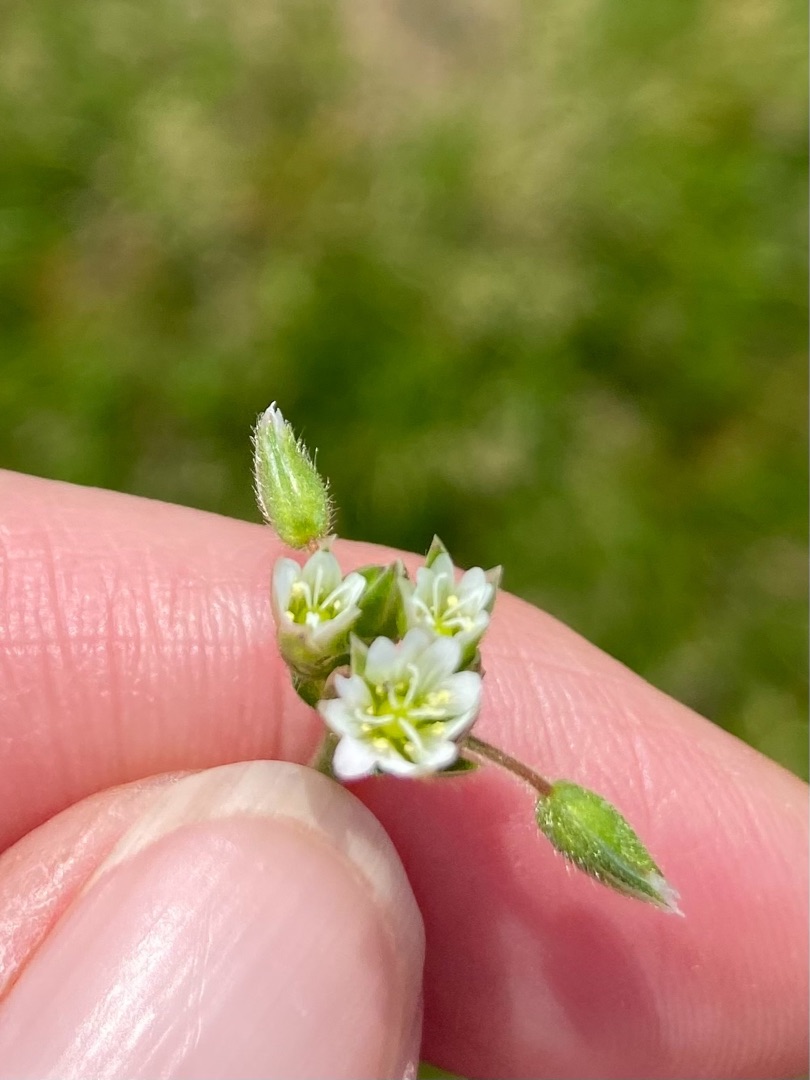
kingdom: Plantae
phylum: Tracheophyta
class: Magnoliopsida
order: Caryophyllales
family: Caryophyllaceae
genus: Cerastium
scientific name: Cerastium fontanum
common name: Almindelig hønsetarm
